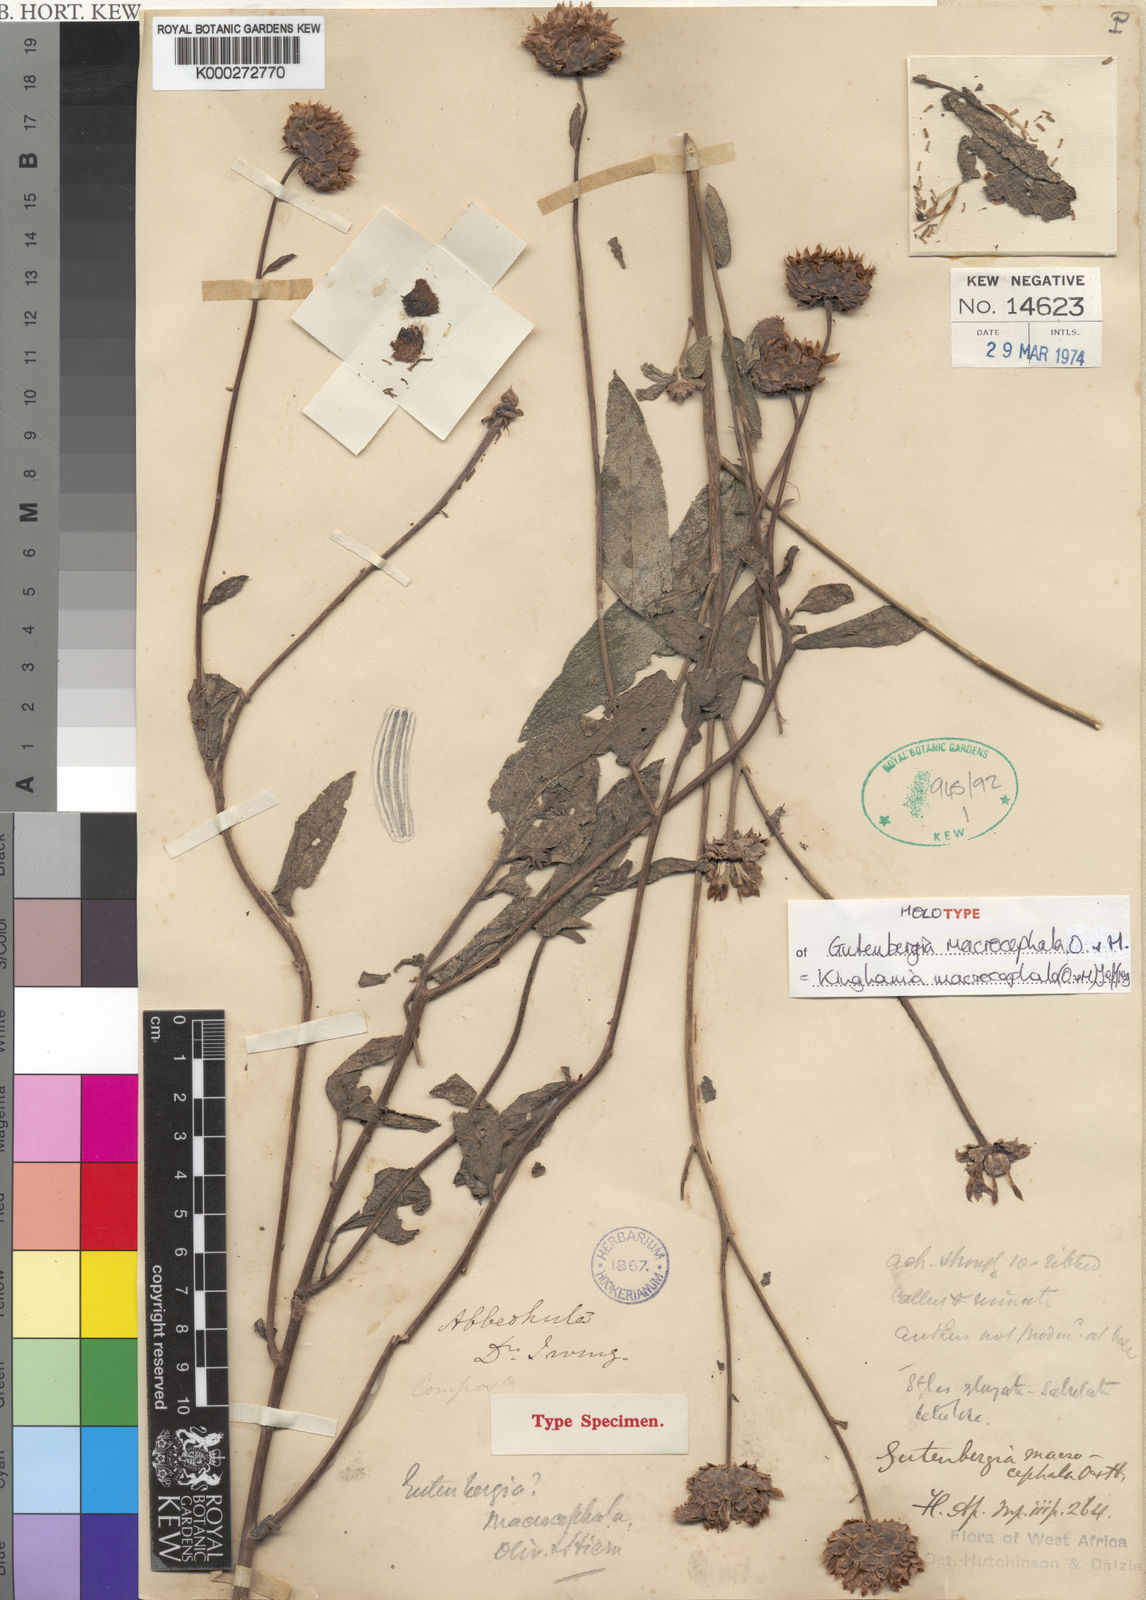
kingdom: Plantae
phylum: Tracheophyta
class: Magnoliopsida
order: Asterales
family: Asteraceae
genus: Kinghamia
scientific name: Kinghamia macrocephala
